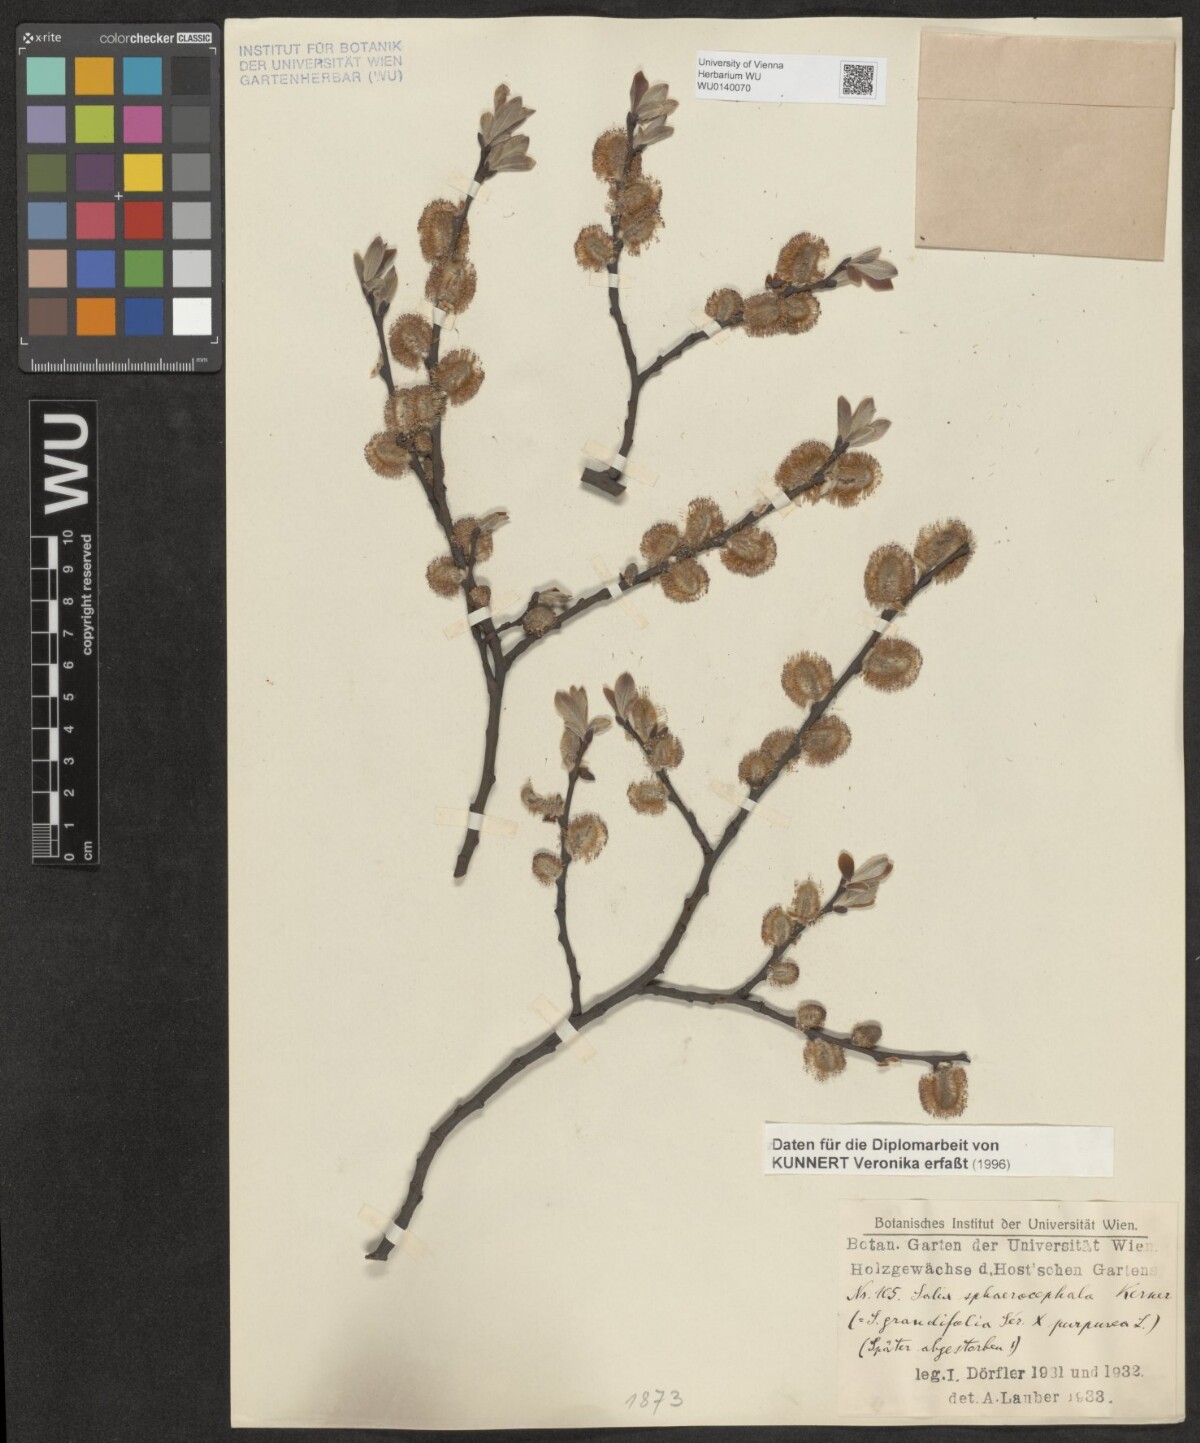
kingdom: Plantae
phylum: Tracheophyta
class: Magnoliopsida
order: Malpighiales
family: Salicaceae
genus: Salix
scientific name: Salix purpurea
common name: Purple willow
